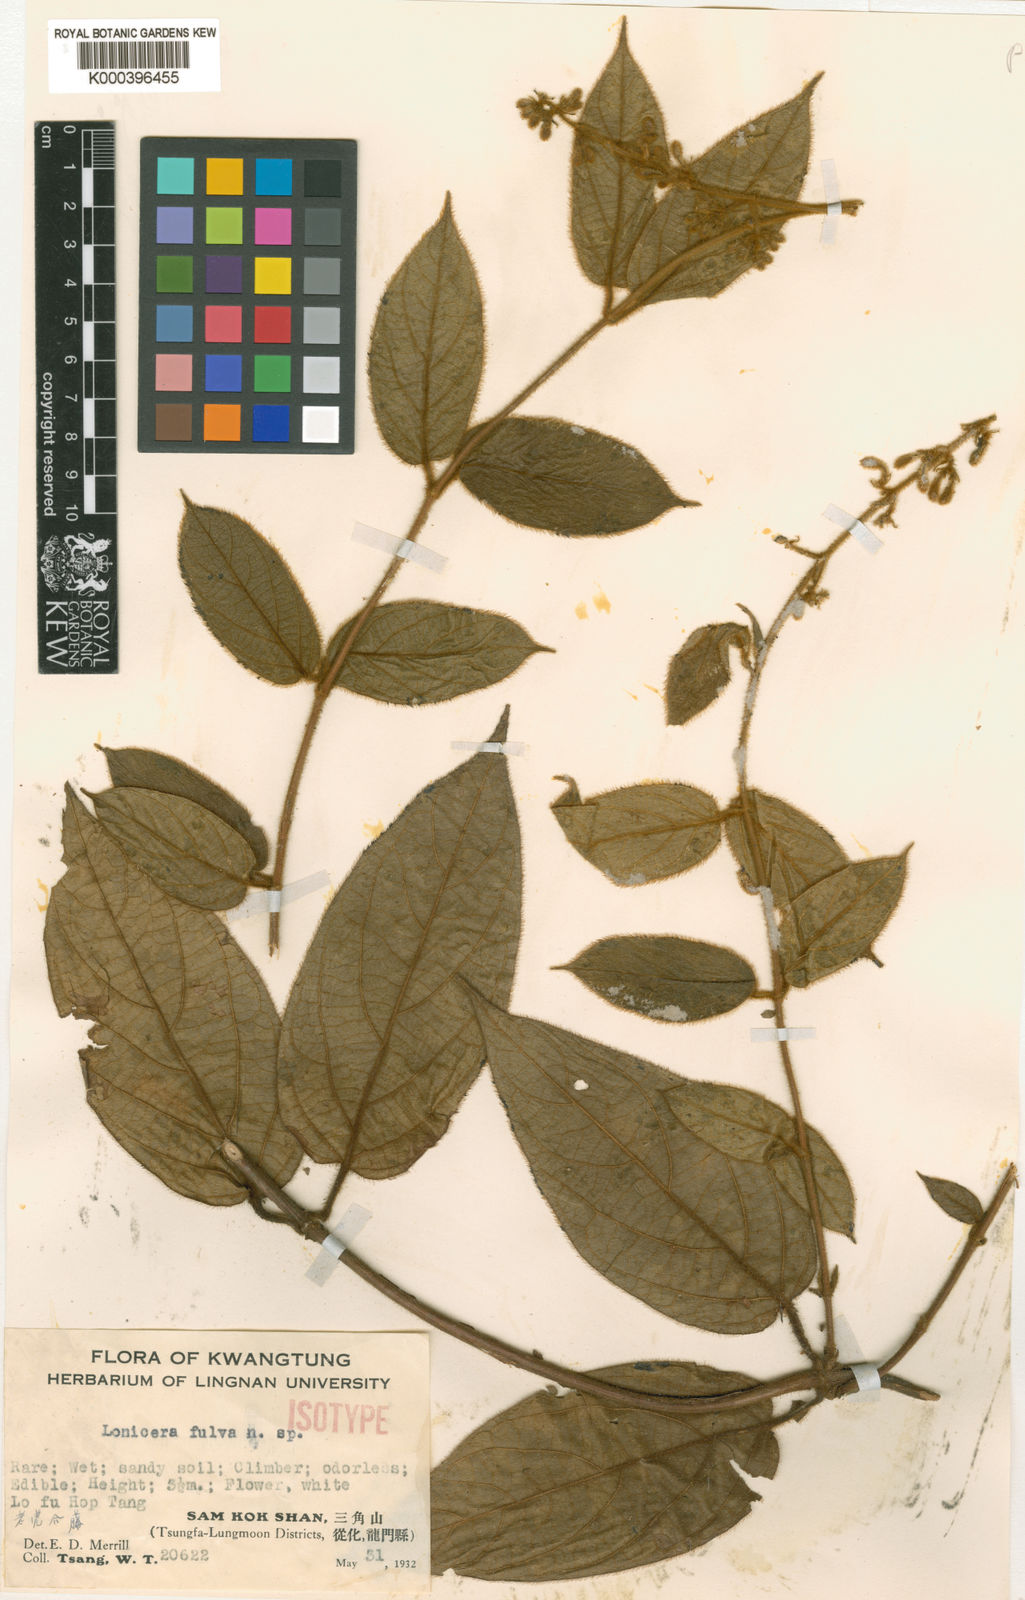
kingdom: Plantae
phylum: Tracheophyta
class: Magnoliopsida
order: Dipsacales
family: Caprifoliaceae
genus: Lonicera
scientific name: Lonicera ferruginea
